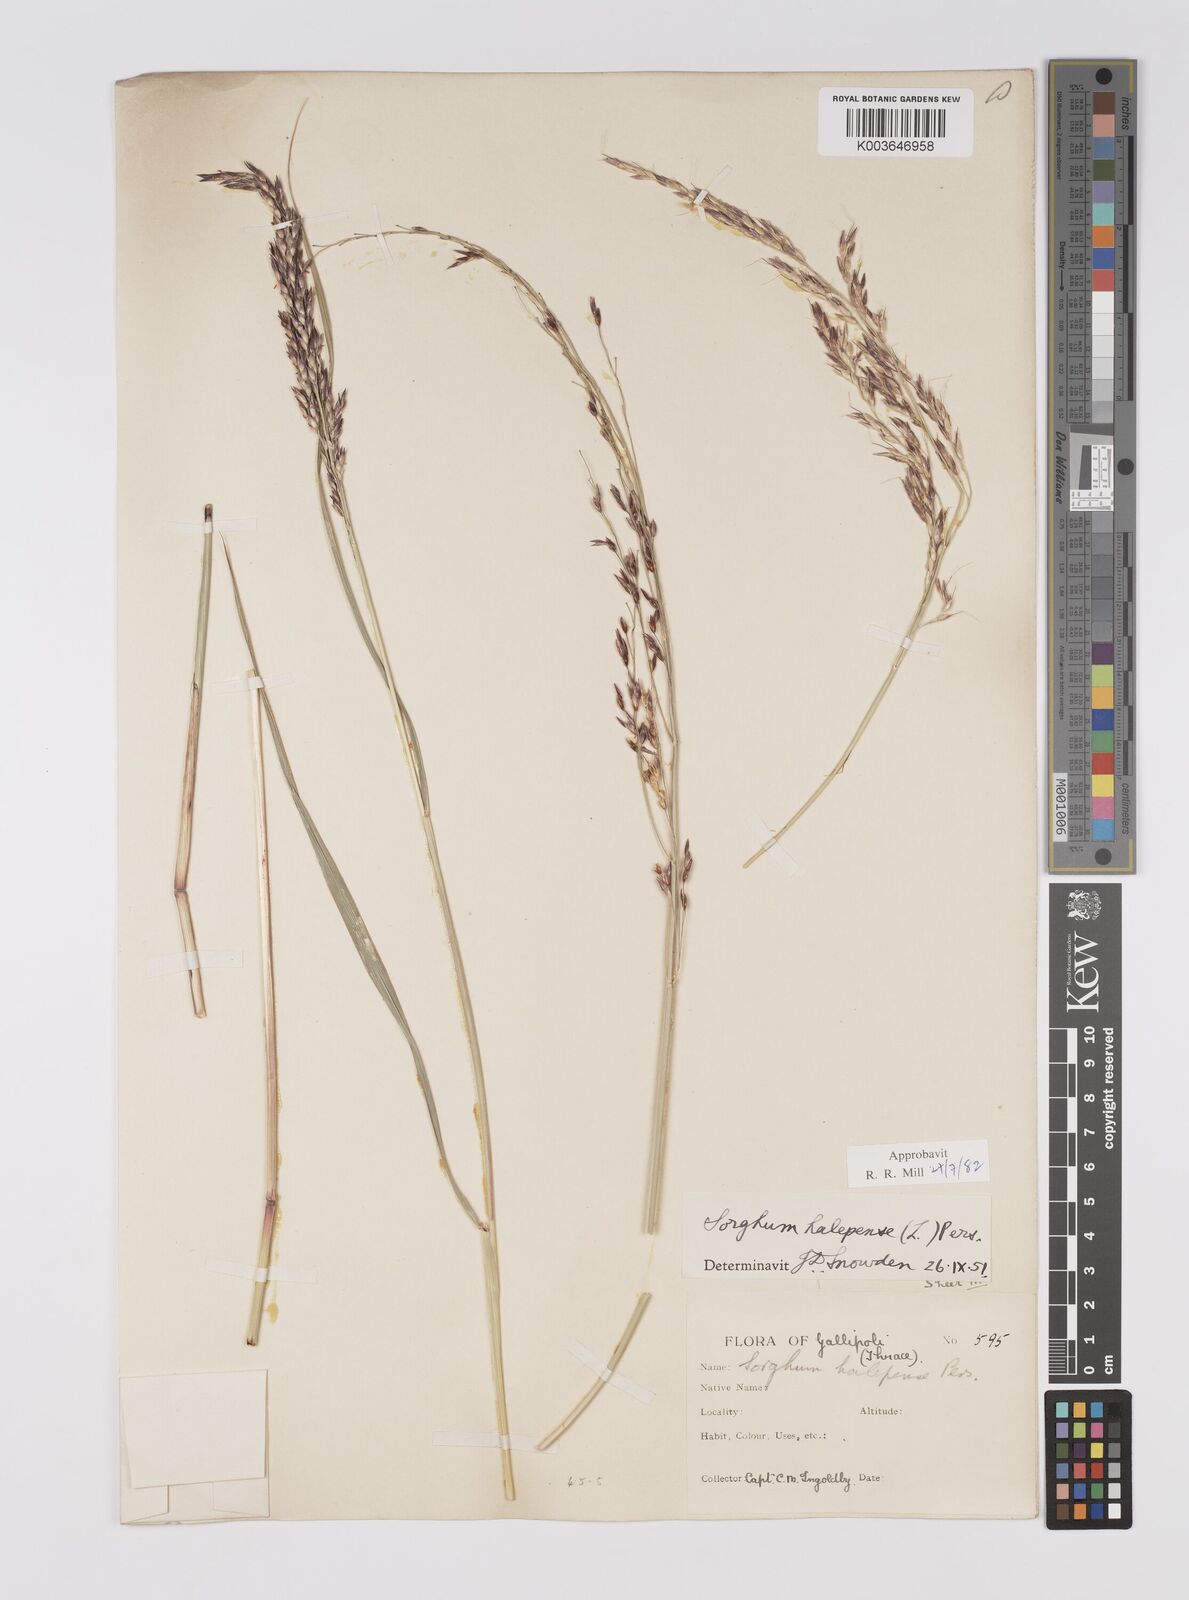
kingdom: Plantae
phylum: Tracheophyta
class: Liliopsida
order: Poales
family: Poaceae
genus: Sorghum
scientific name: Sorghum halepense
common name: Johnson-grass
